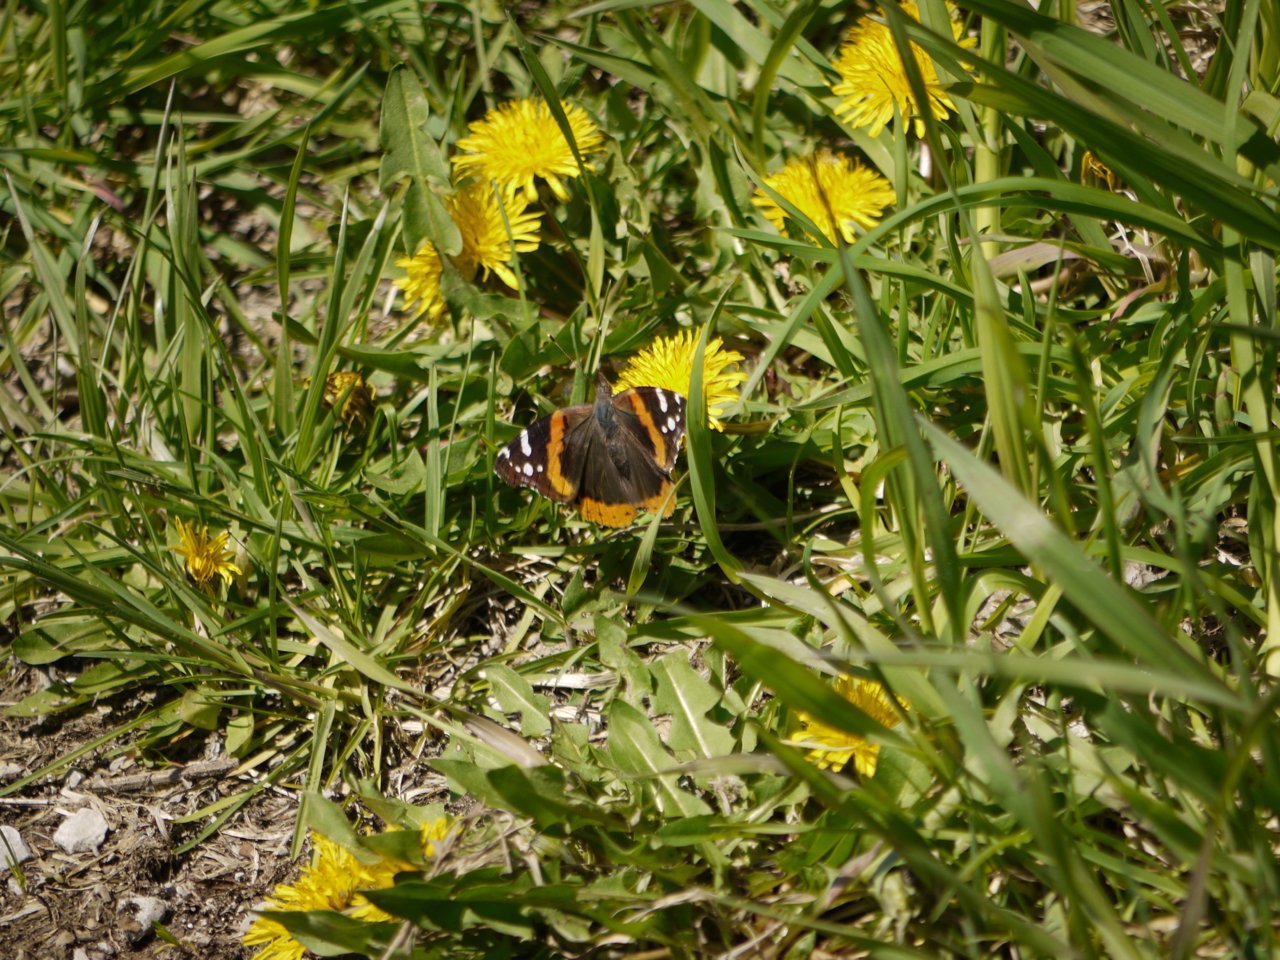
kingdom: Animalia
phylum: Arthropoda
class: Insecta
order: Lepidoptera
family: Nymphalidae
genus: Vanessa
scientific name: Vanessa cardui
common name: Painted Lady
